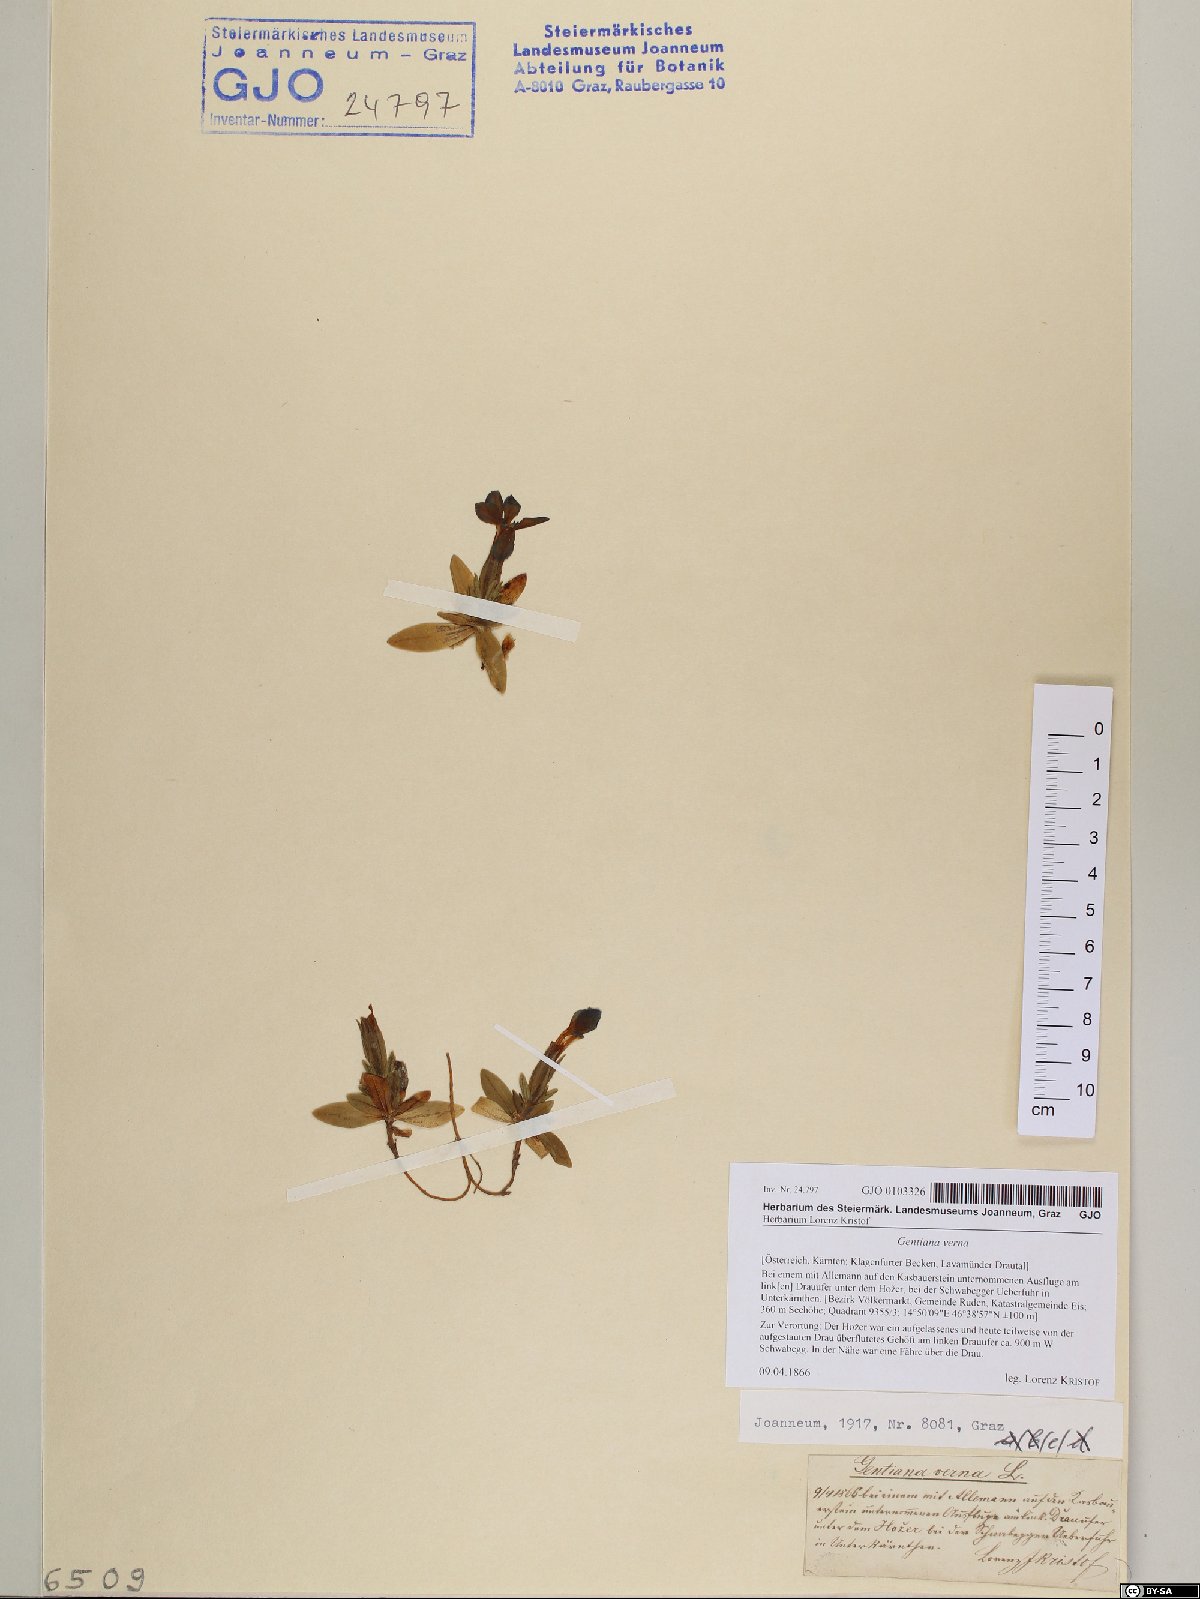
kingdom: Plantae
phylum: Tracheophyta
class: Magnoliopsida
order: Gentianales
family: Gentianaceae
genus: Gentiana
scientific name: Gentiana verna
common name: Spring gentian
